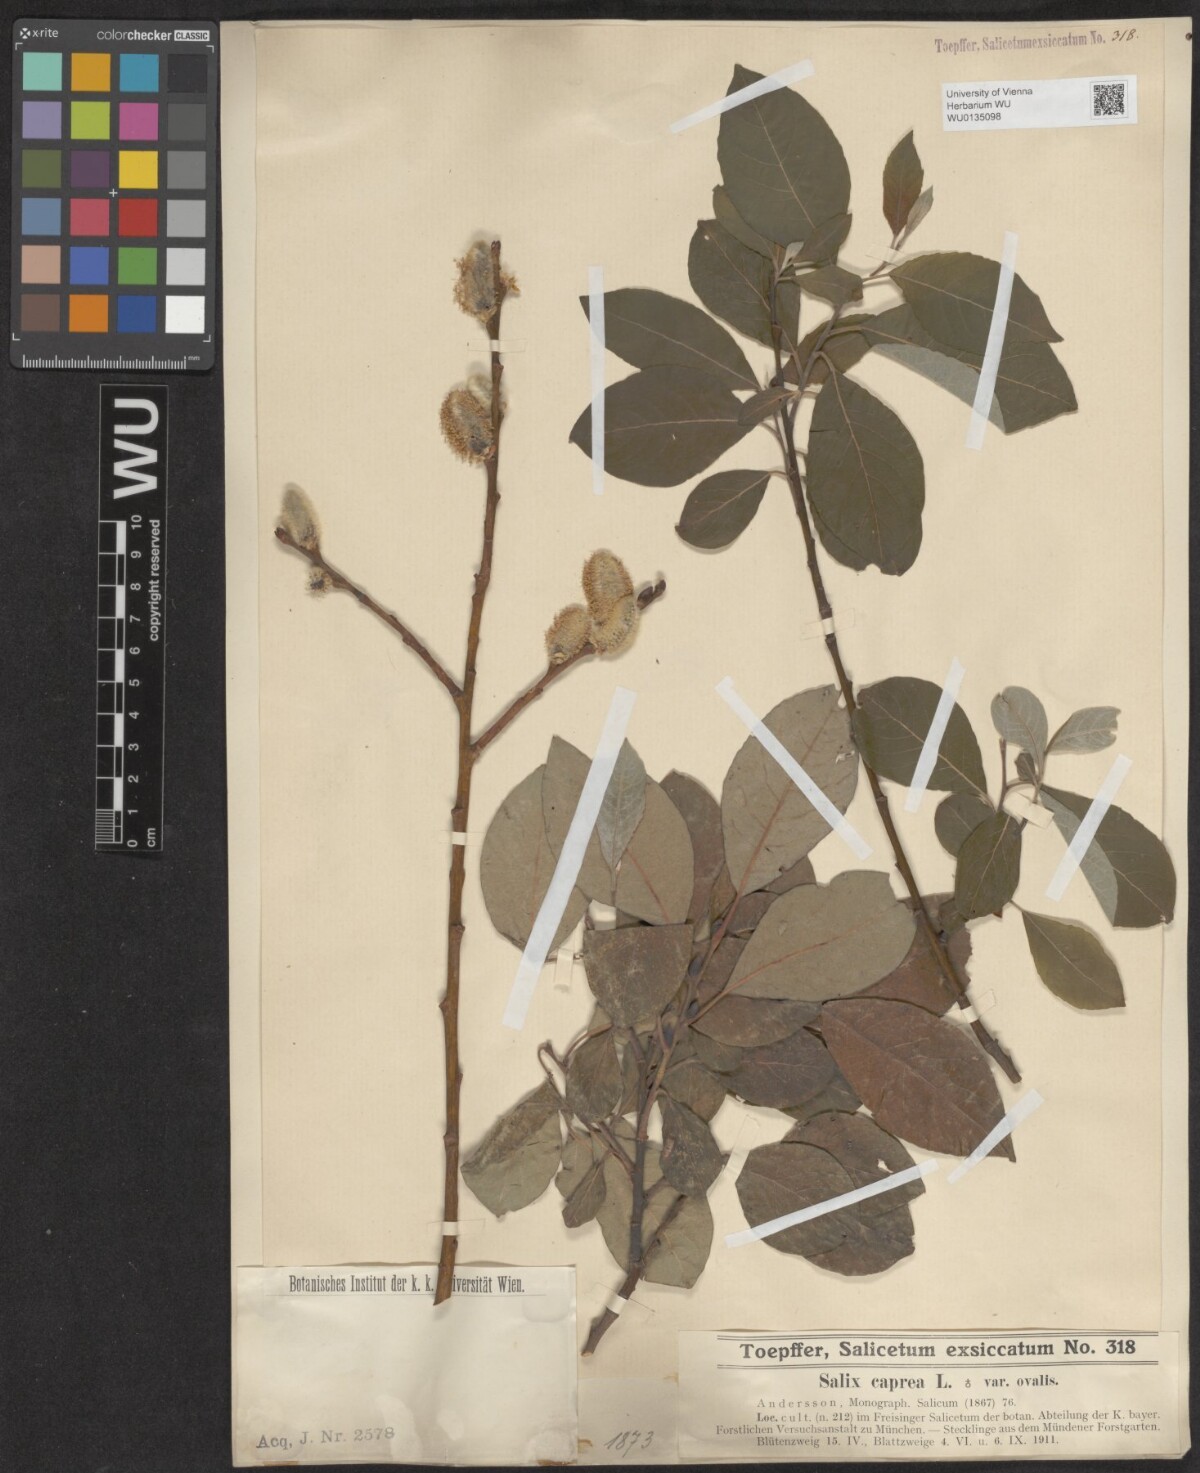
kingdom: Plantae
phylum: Tracheophyta
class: Magnoliopsida
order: Malpighiales
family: Salicaceae
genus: Salix
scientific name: Salix caprea
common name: Goat willow
